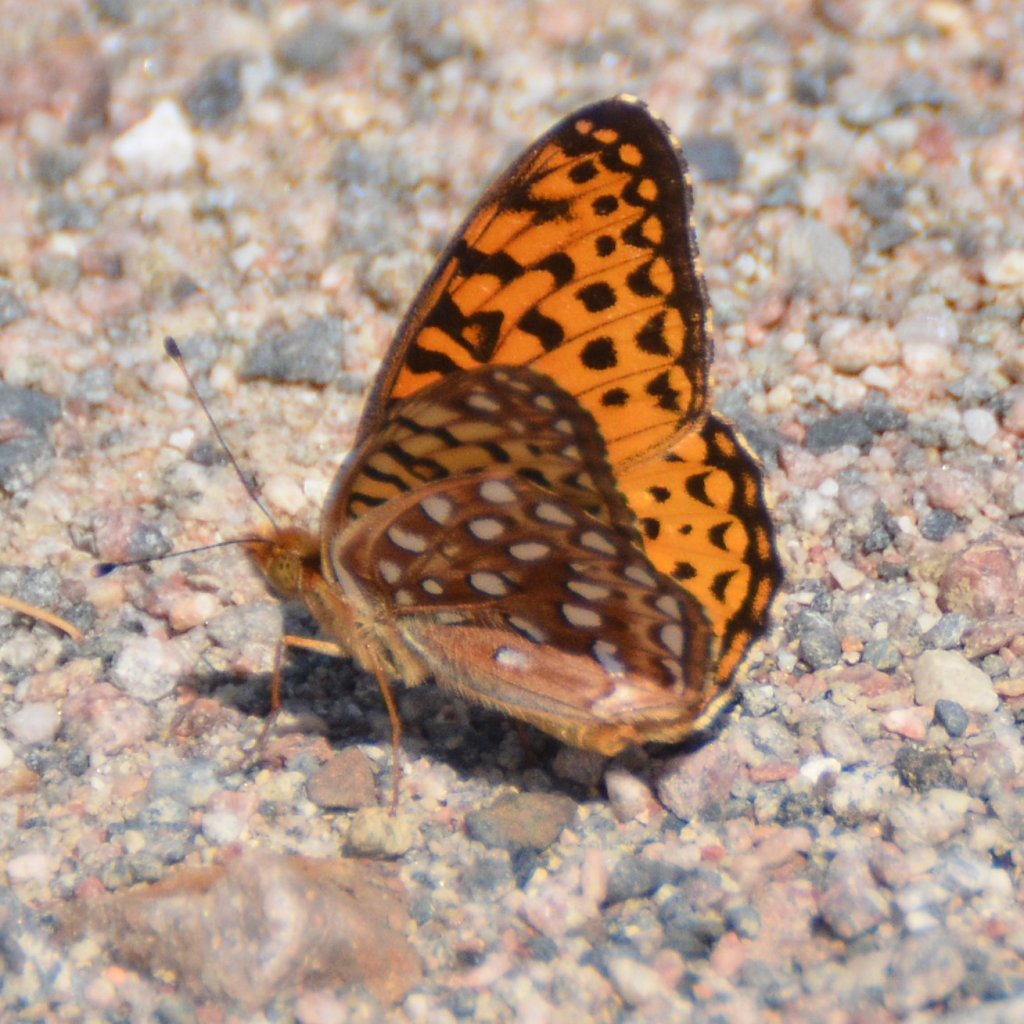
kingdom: Animalia
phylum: Arthropoda
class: Insecta
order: Lepidoptera
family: Nymphalidae
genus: Speyeria
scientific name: Speyeria aphrodite
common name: Aphrodite Fritillary
